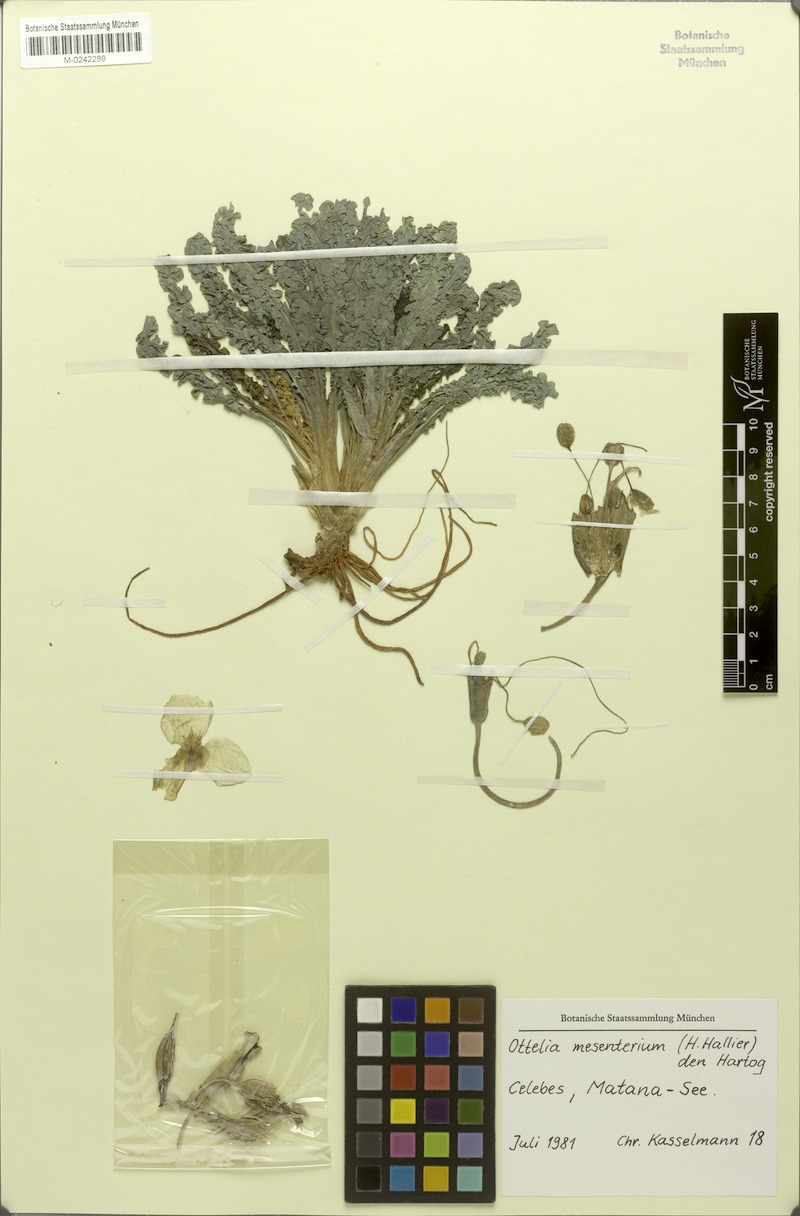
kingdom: Plantae
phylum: Tracheophyta
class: Liliopsida
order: Alismatales
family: Hydrocharitaceae
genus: Ottelia
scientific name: Ottelia mesenterium
